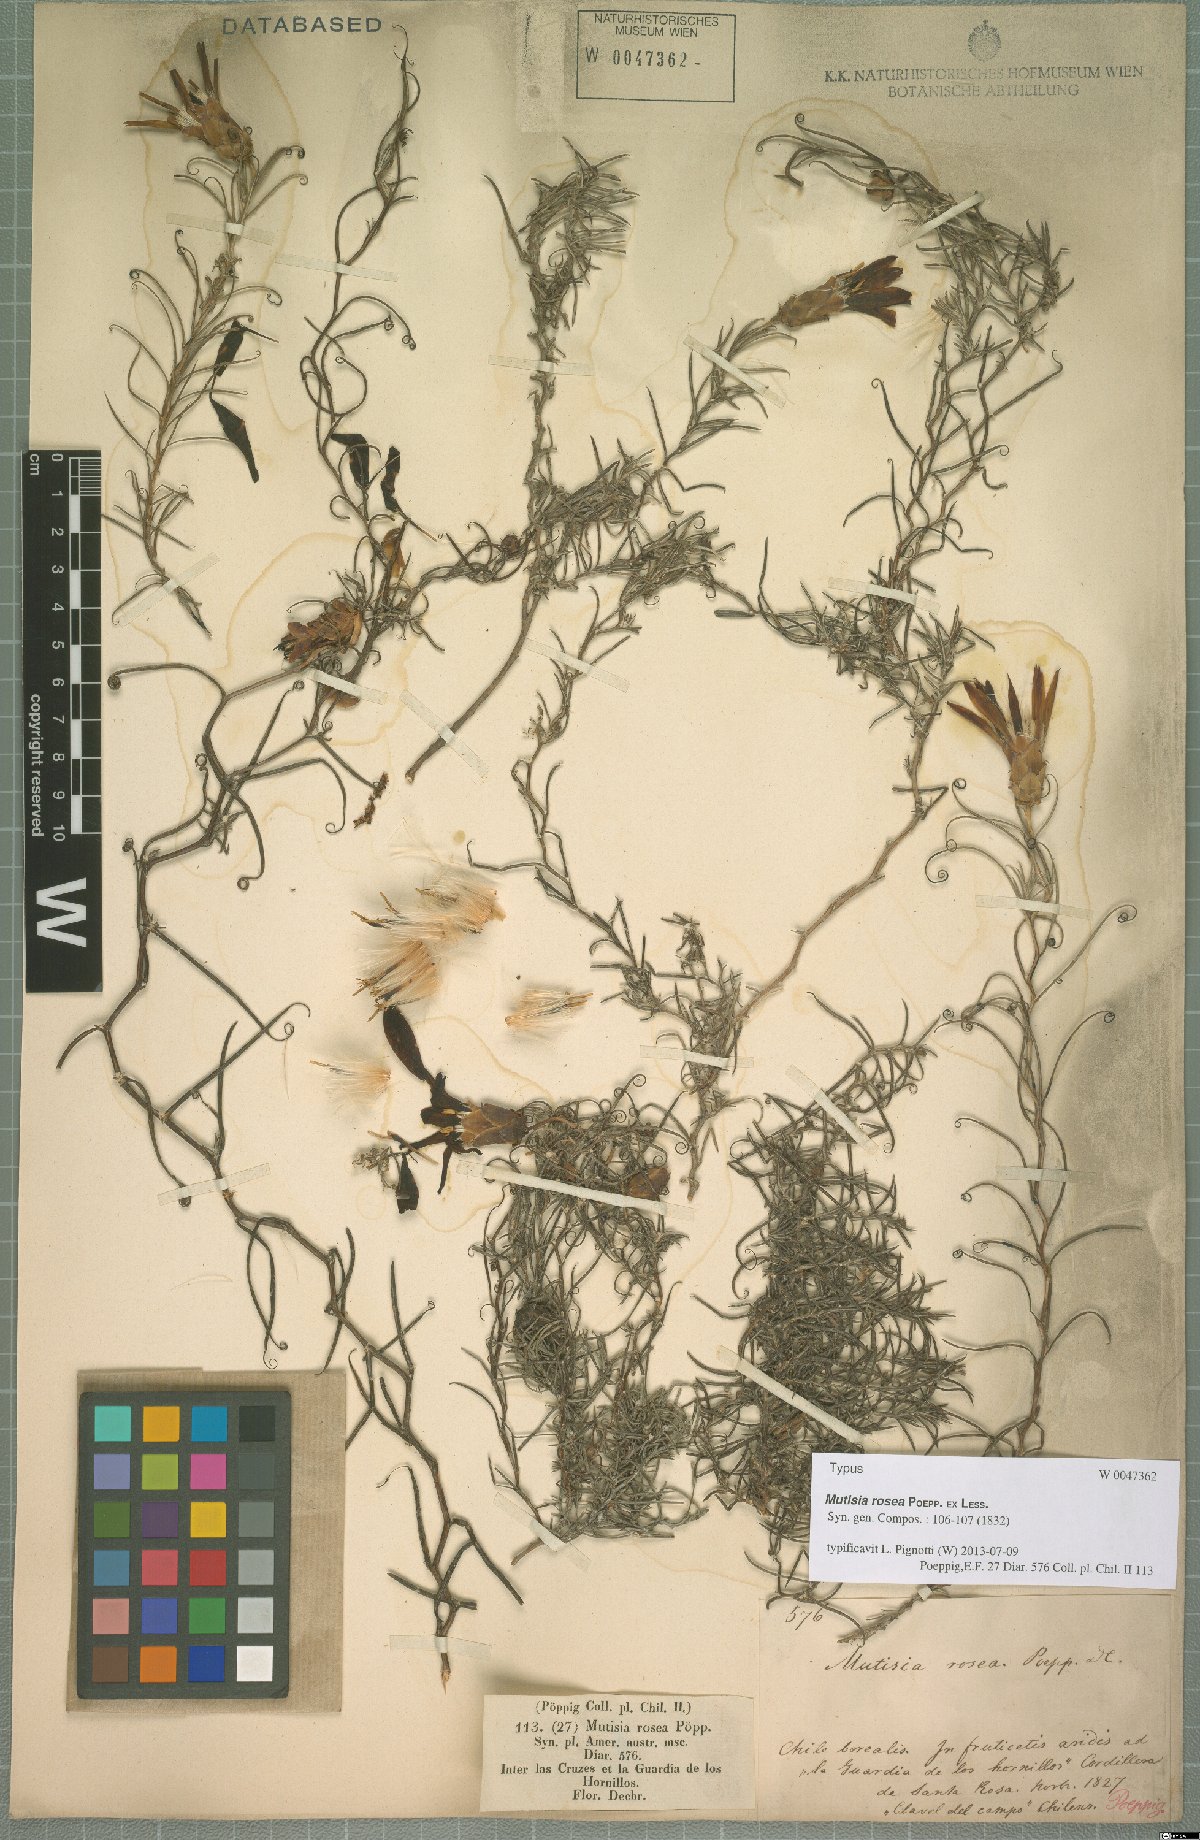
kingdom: Plantae
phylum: Tracheophyta
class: Magnoliopsida
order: Asterales
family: Asteraceae
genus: Mutisia
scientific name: Mutisia rosea
